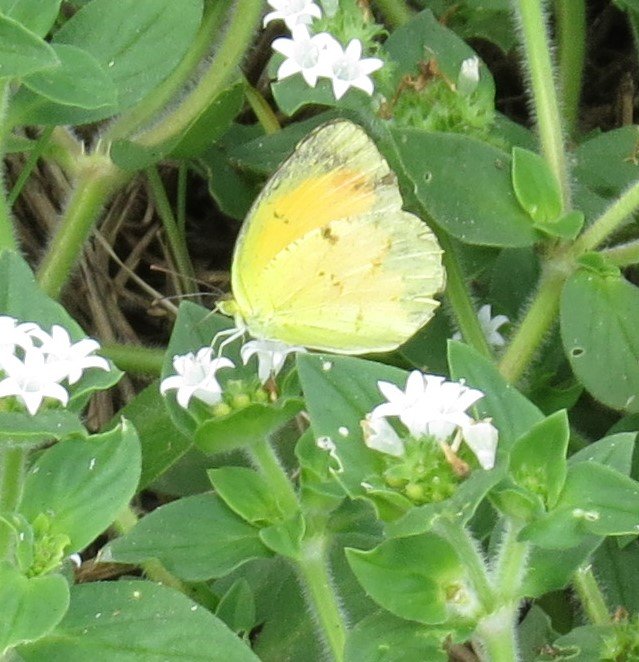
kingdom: Animalia
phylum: Arthropoda
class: Insecta
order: Lepidoptera
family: Pieridae
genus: Abaeis
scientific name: Abaeis nicippe
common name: Sleepy Orange
